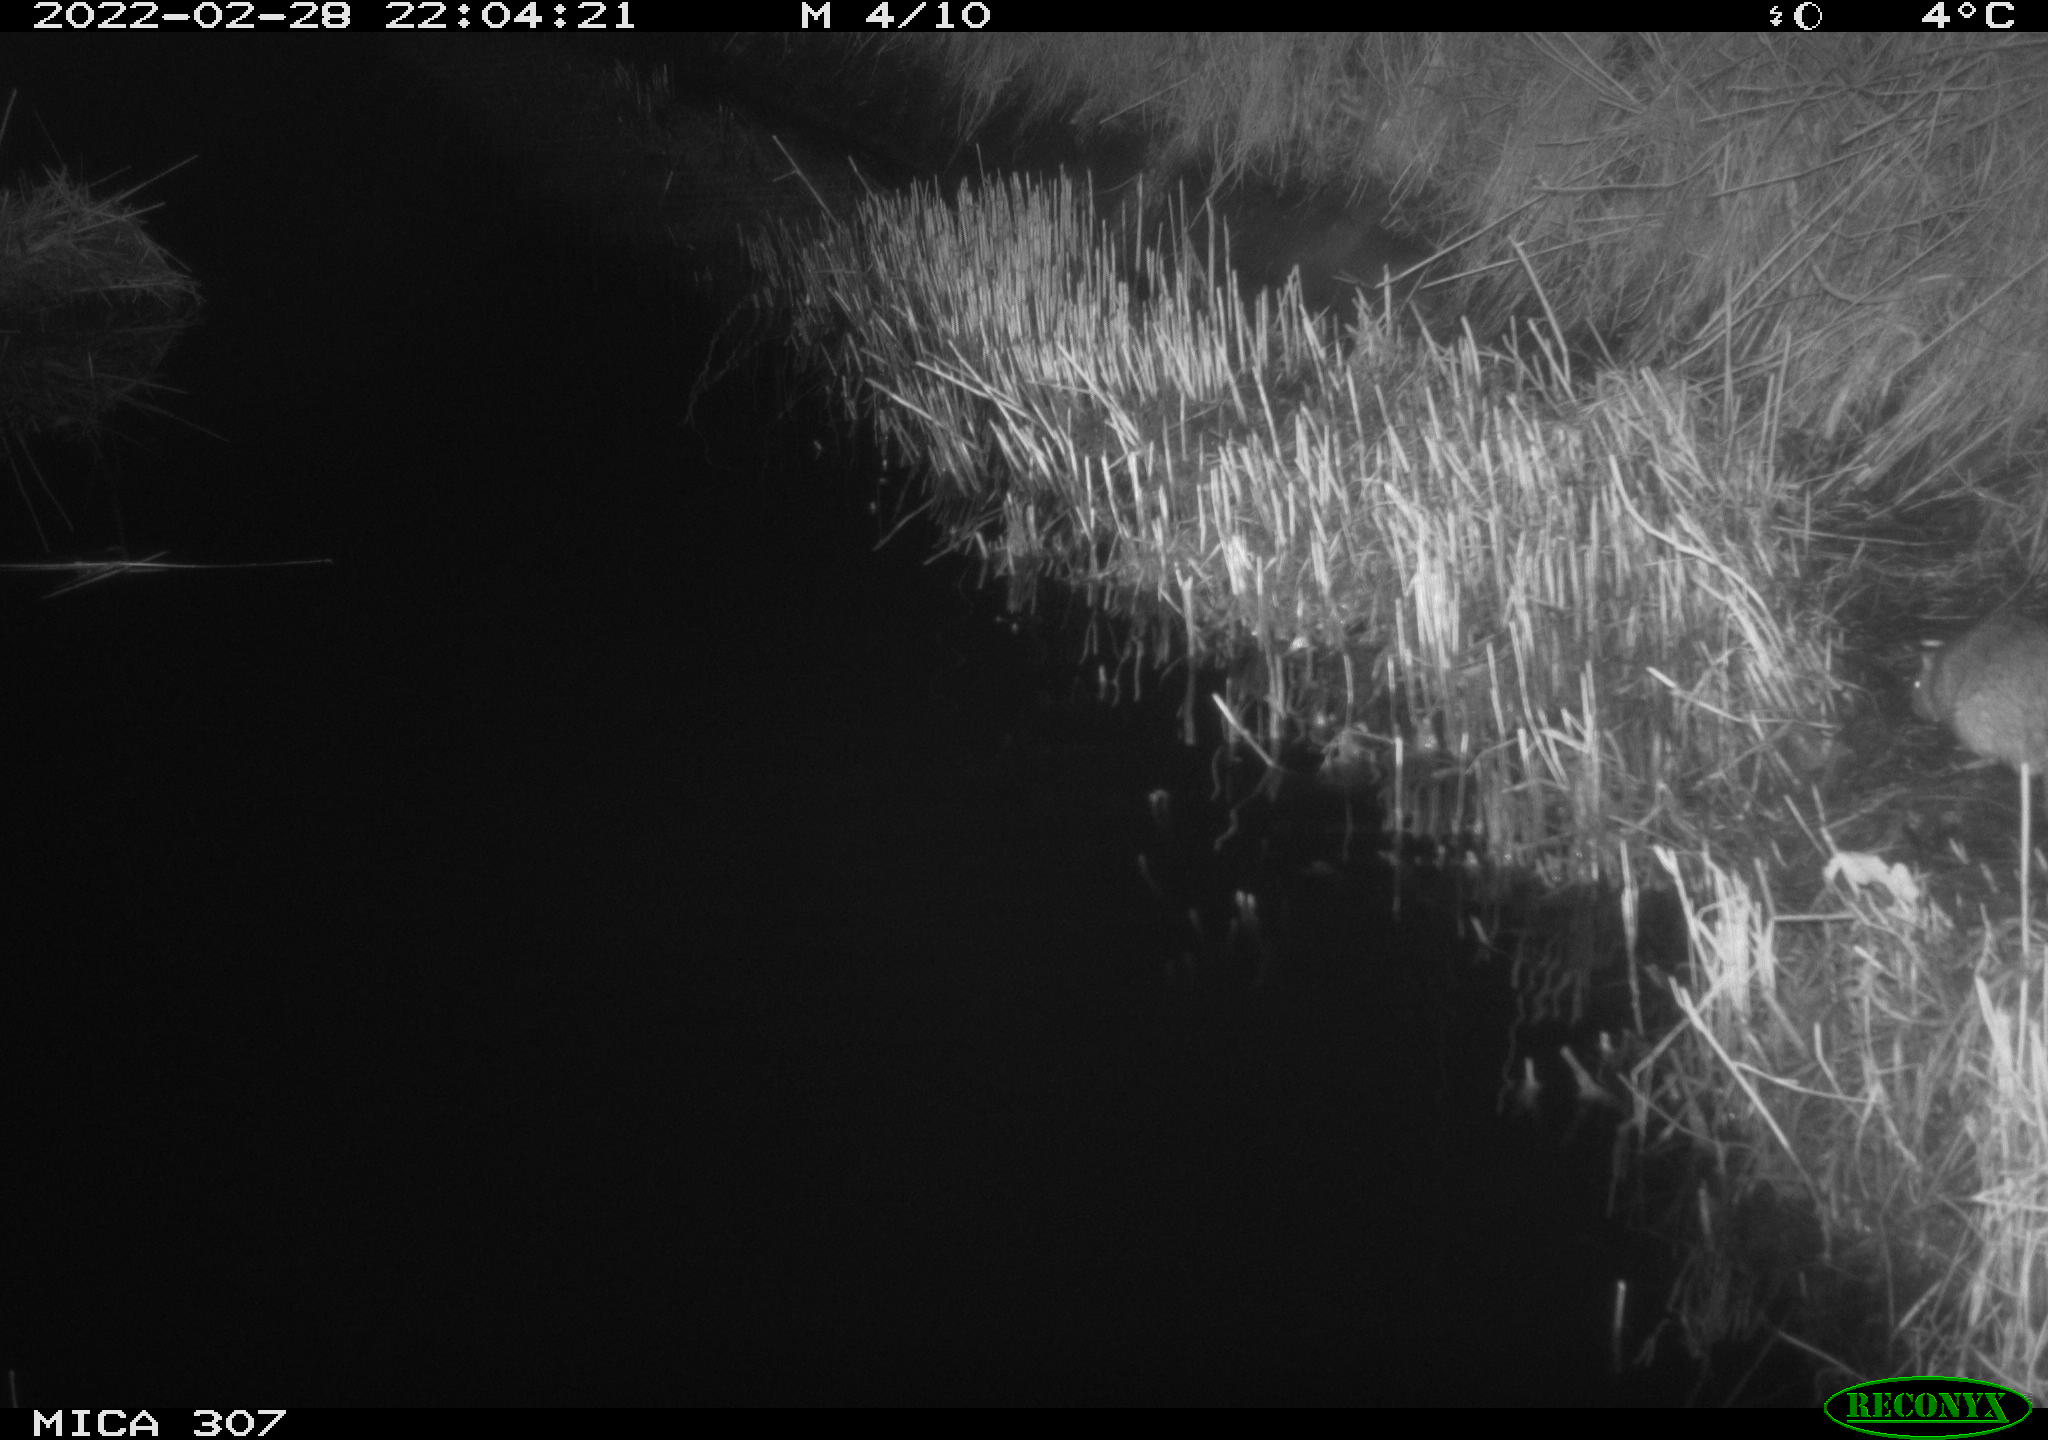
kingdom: Animalia
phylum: Chordata
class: Mammalia
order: Rodentia
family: Muridae
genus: Rattus
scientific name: Rattus norvegicus
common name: Brown rat
